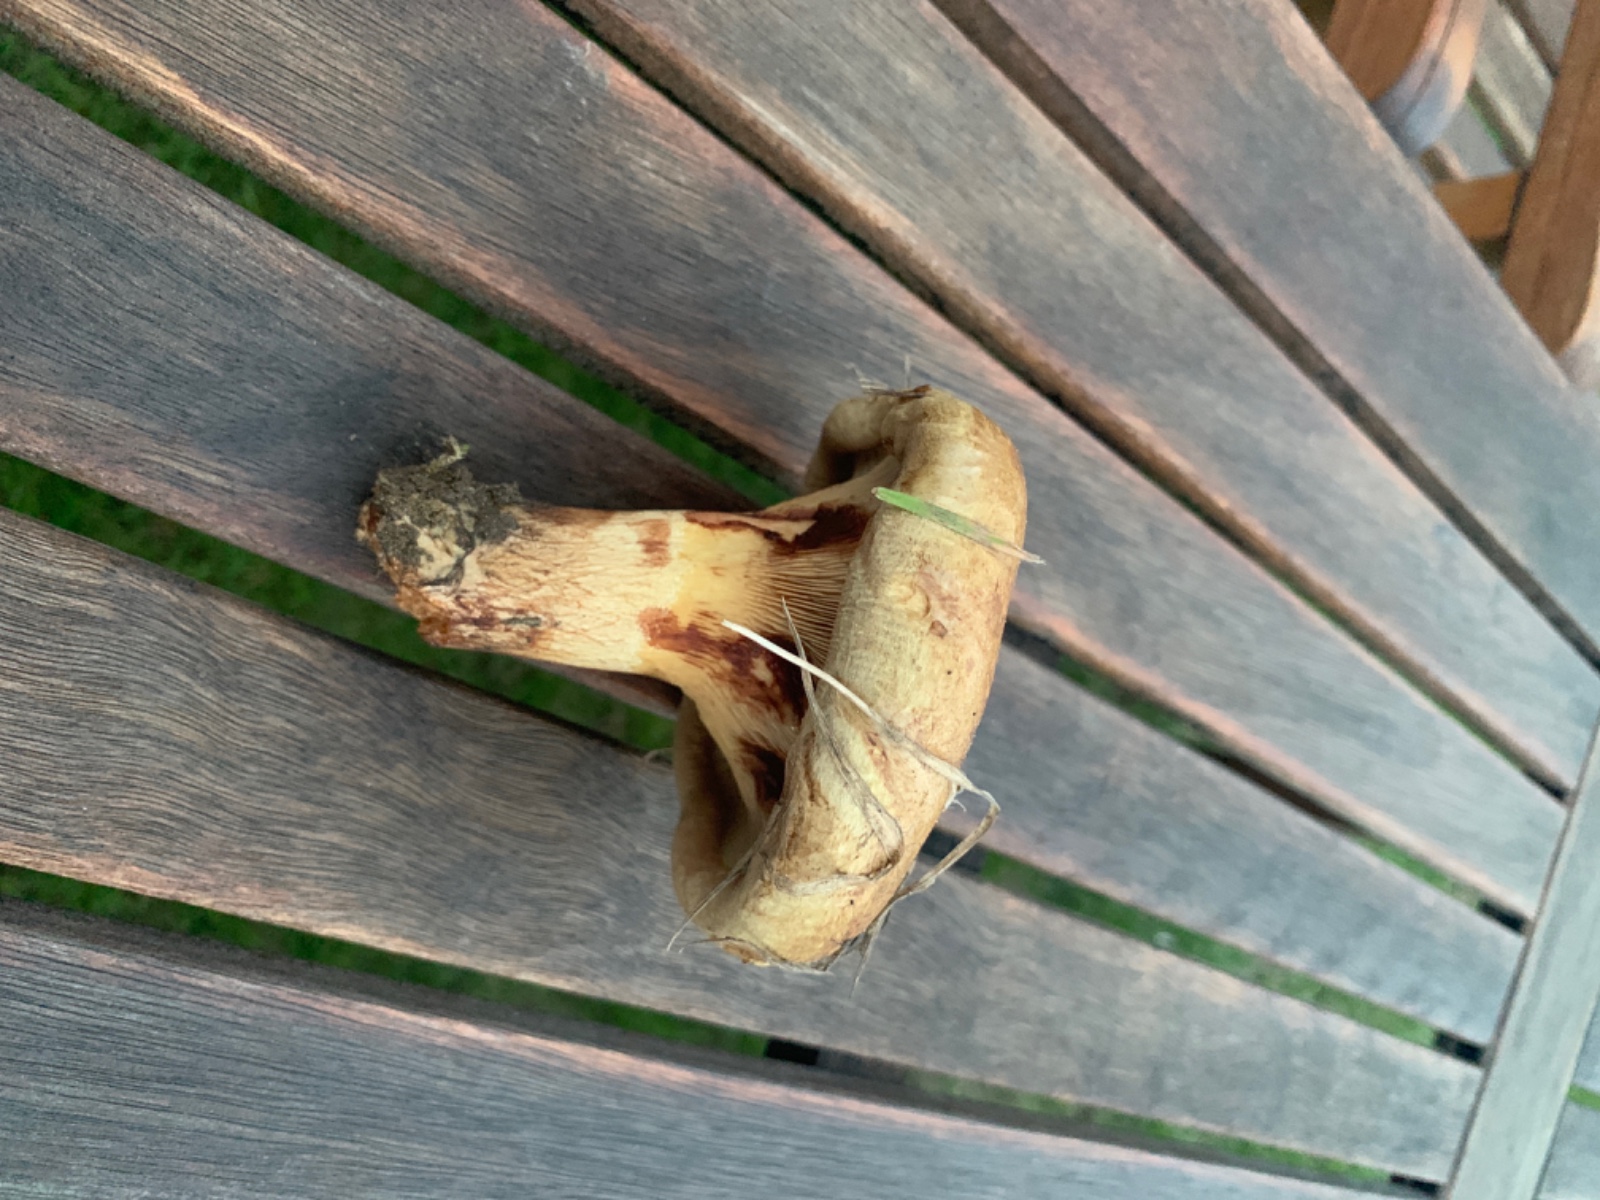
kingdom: Fungi
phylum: Basidiomycota
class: Agaricomycetes
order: Boletales
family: Paxillaceae
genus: Paxillus
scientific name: Paxillus
